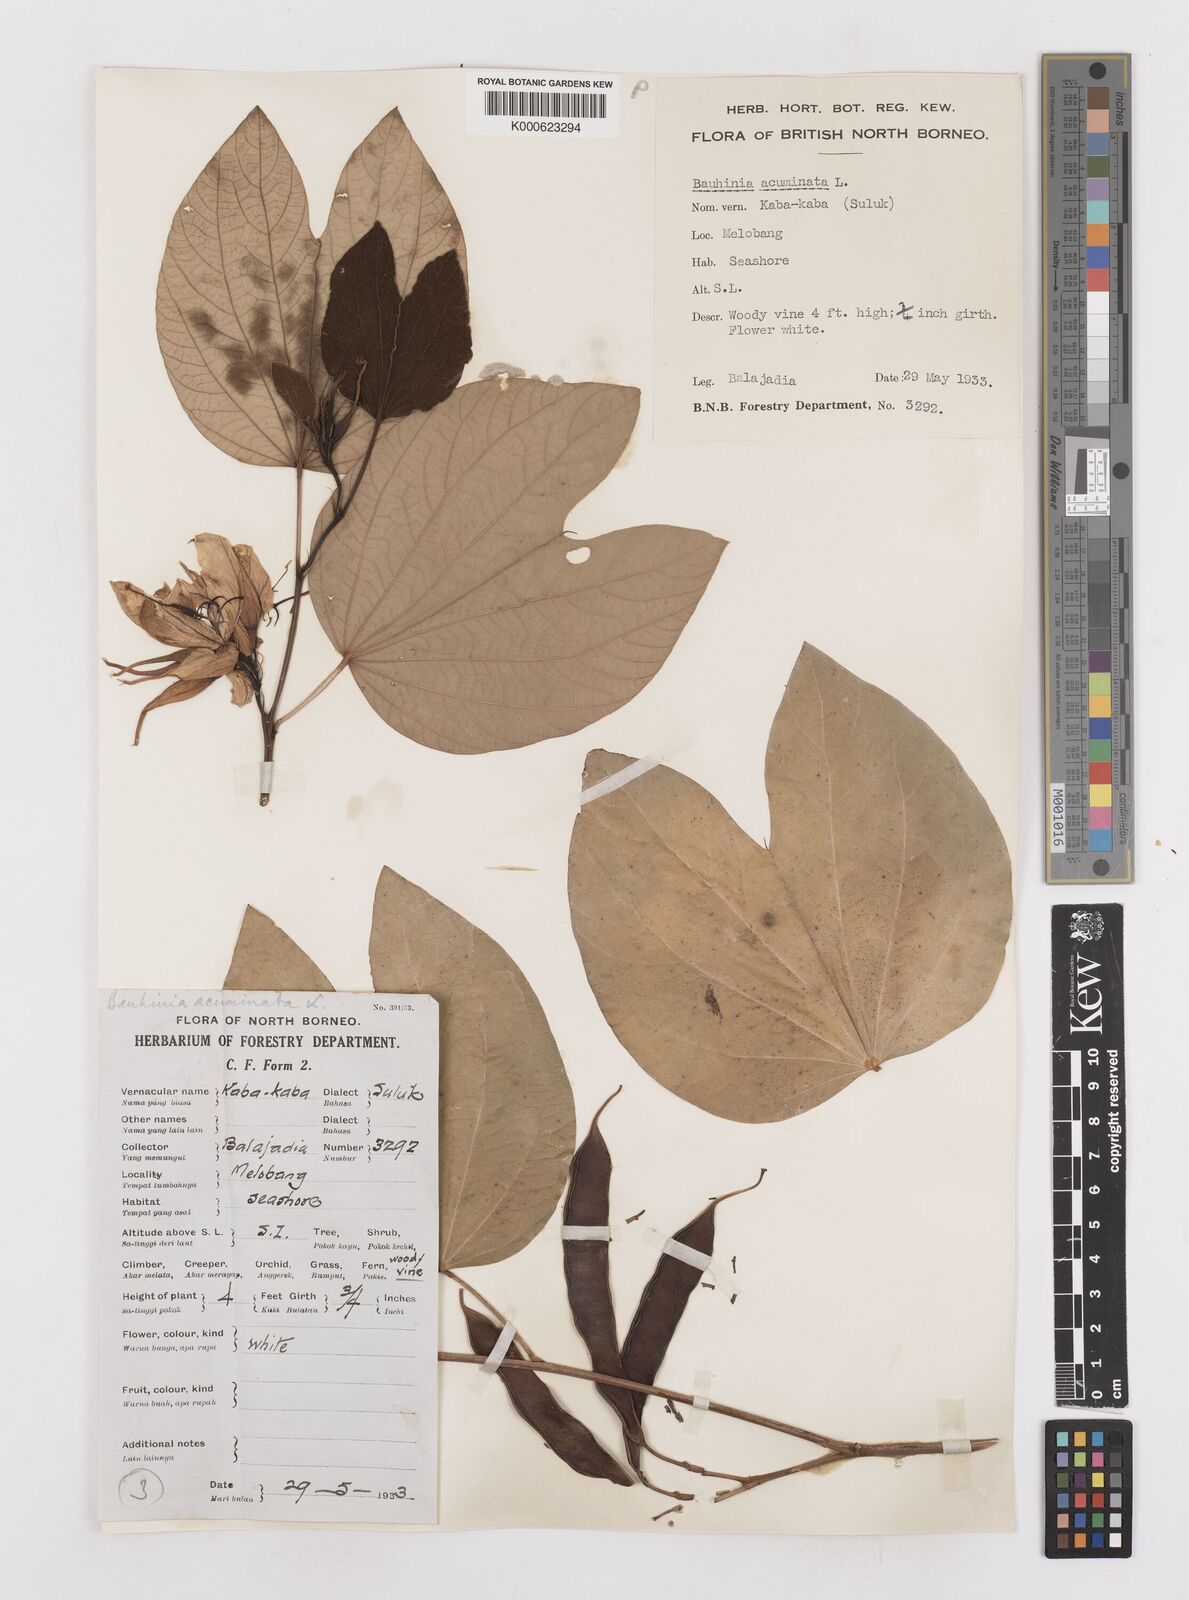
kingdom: Plantae
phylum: Tracheophyta
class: Magnoliopsida
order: Fabales
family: Fabaceae
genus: Bauhinia
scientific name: Bauhinia acuminata
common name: Dwarf white bauhinia
